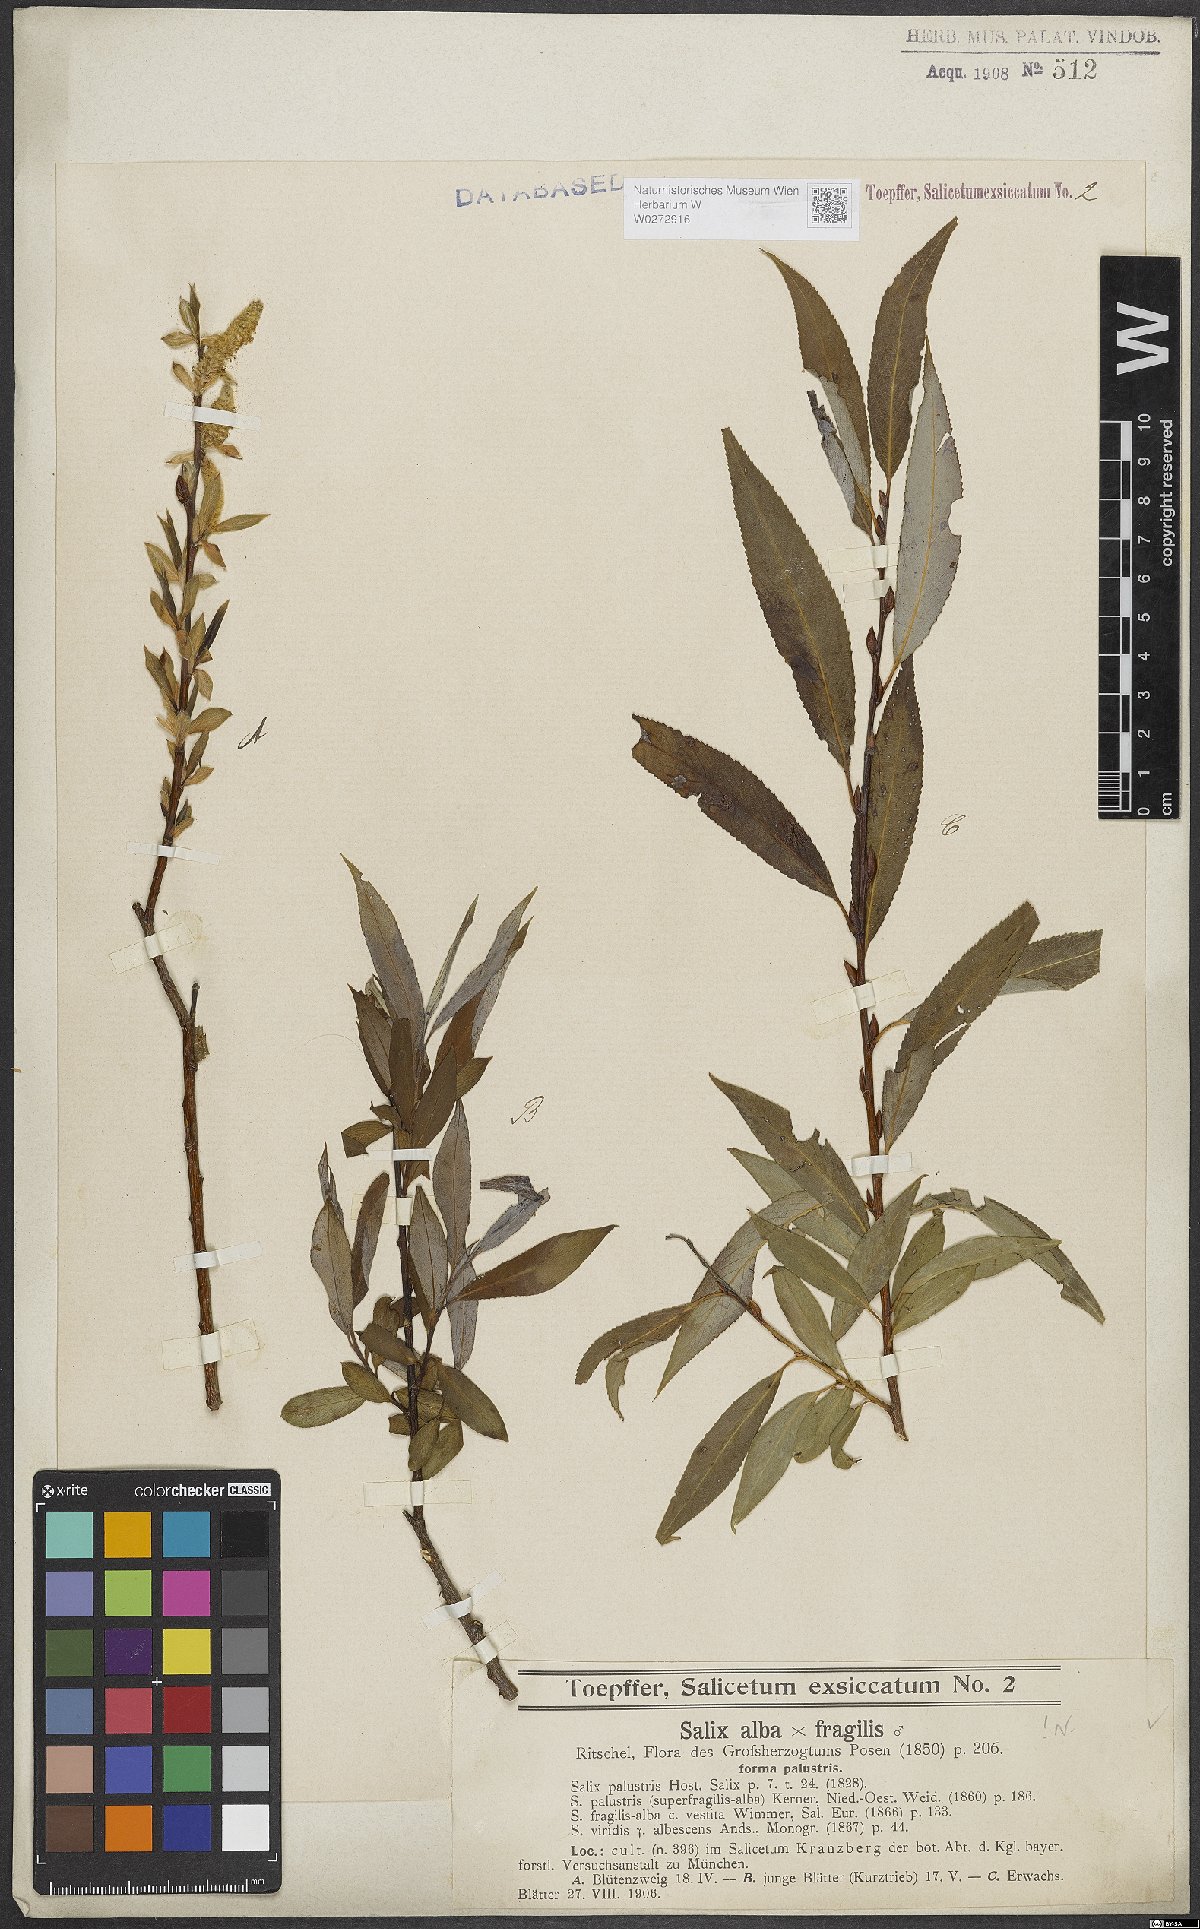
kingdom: Plantae
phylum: Tracheophyta
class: Magnoliopsida
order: Malpighiales
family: Salicaceae
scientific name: Salicaceae
